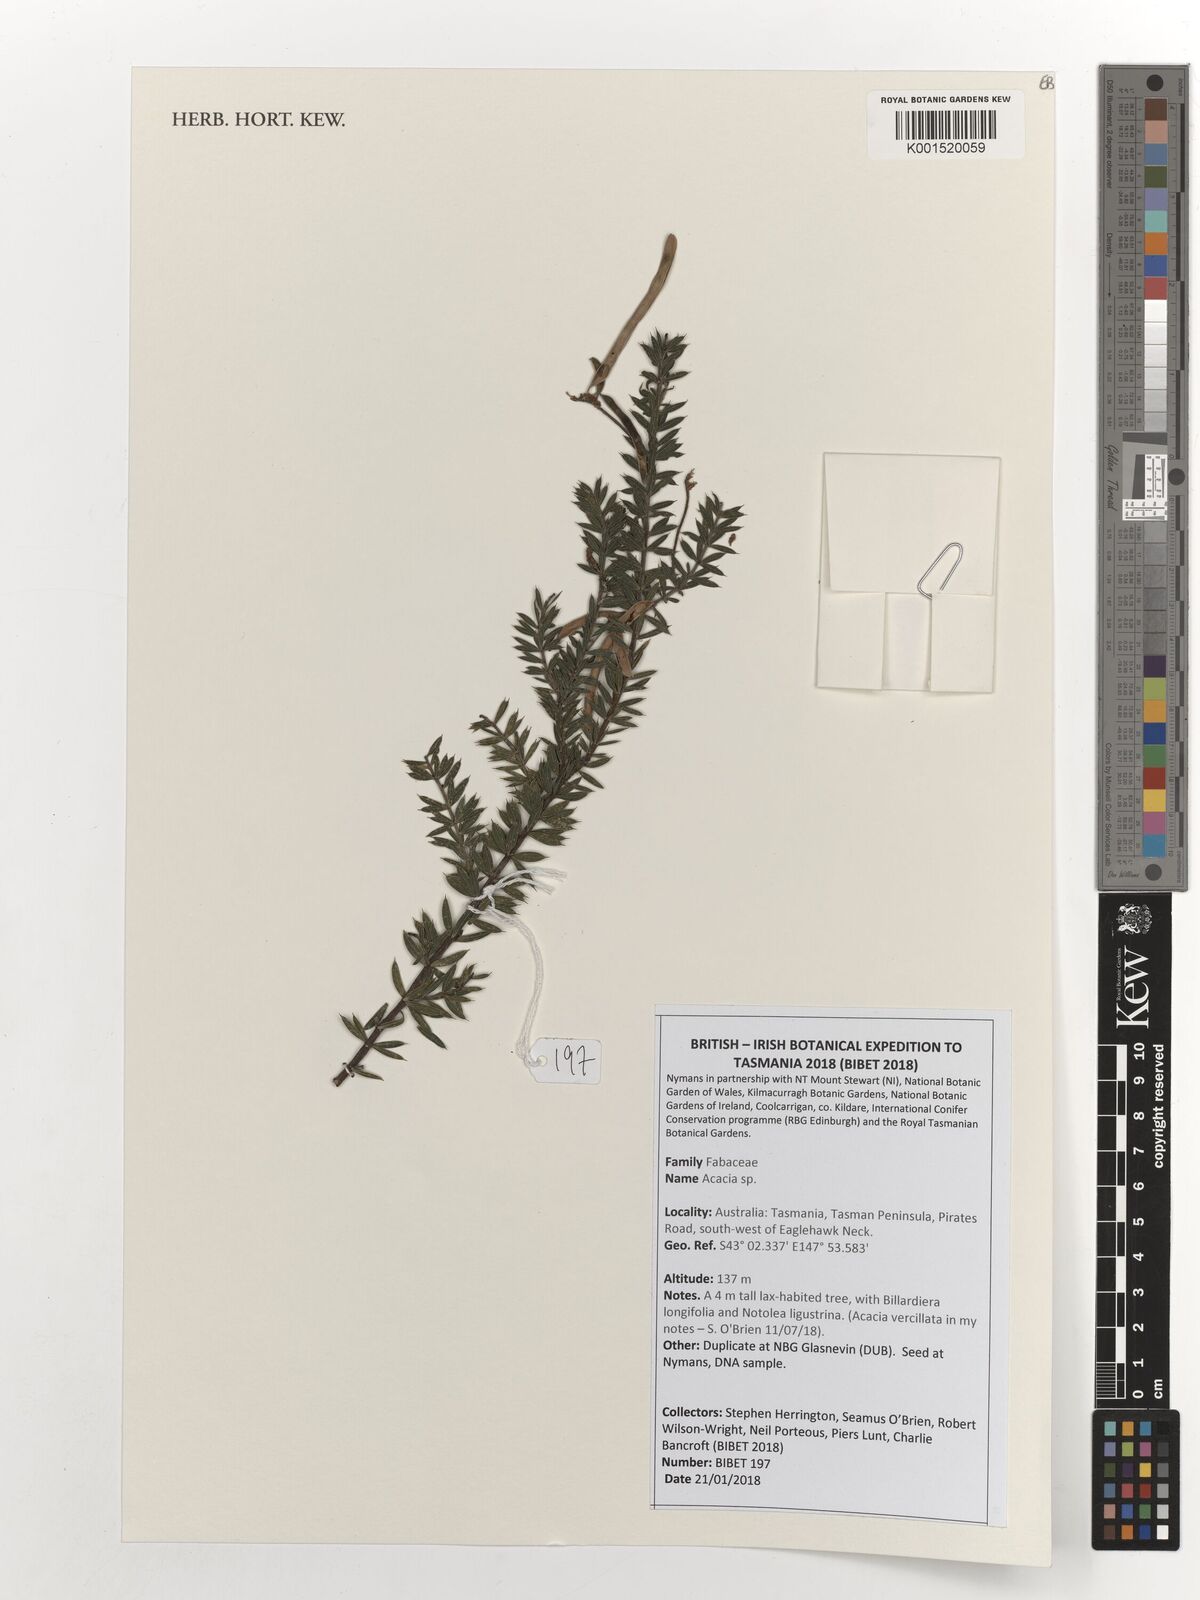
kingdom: Plantae
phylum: Tracheophyta
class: Magnoliopsida
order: Fabales
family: Fabaceae
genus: Acacia
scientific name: Acacia
